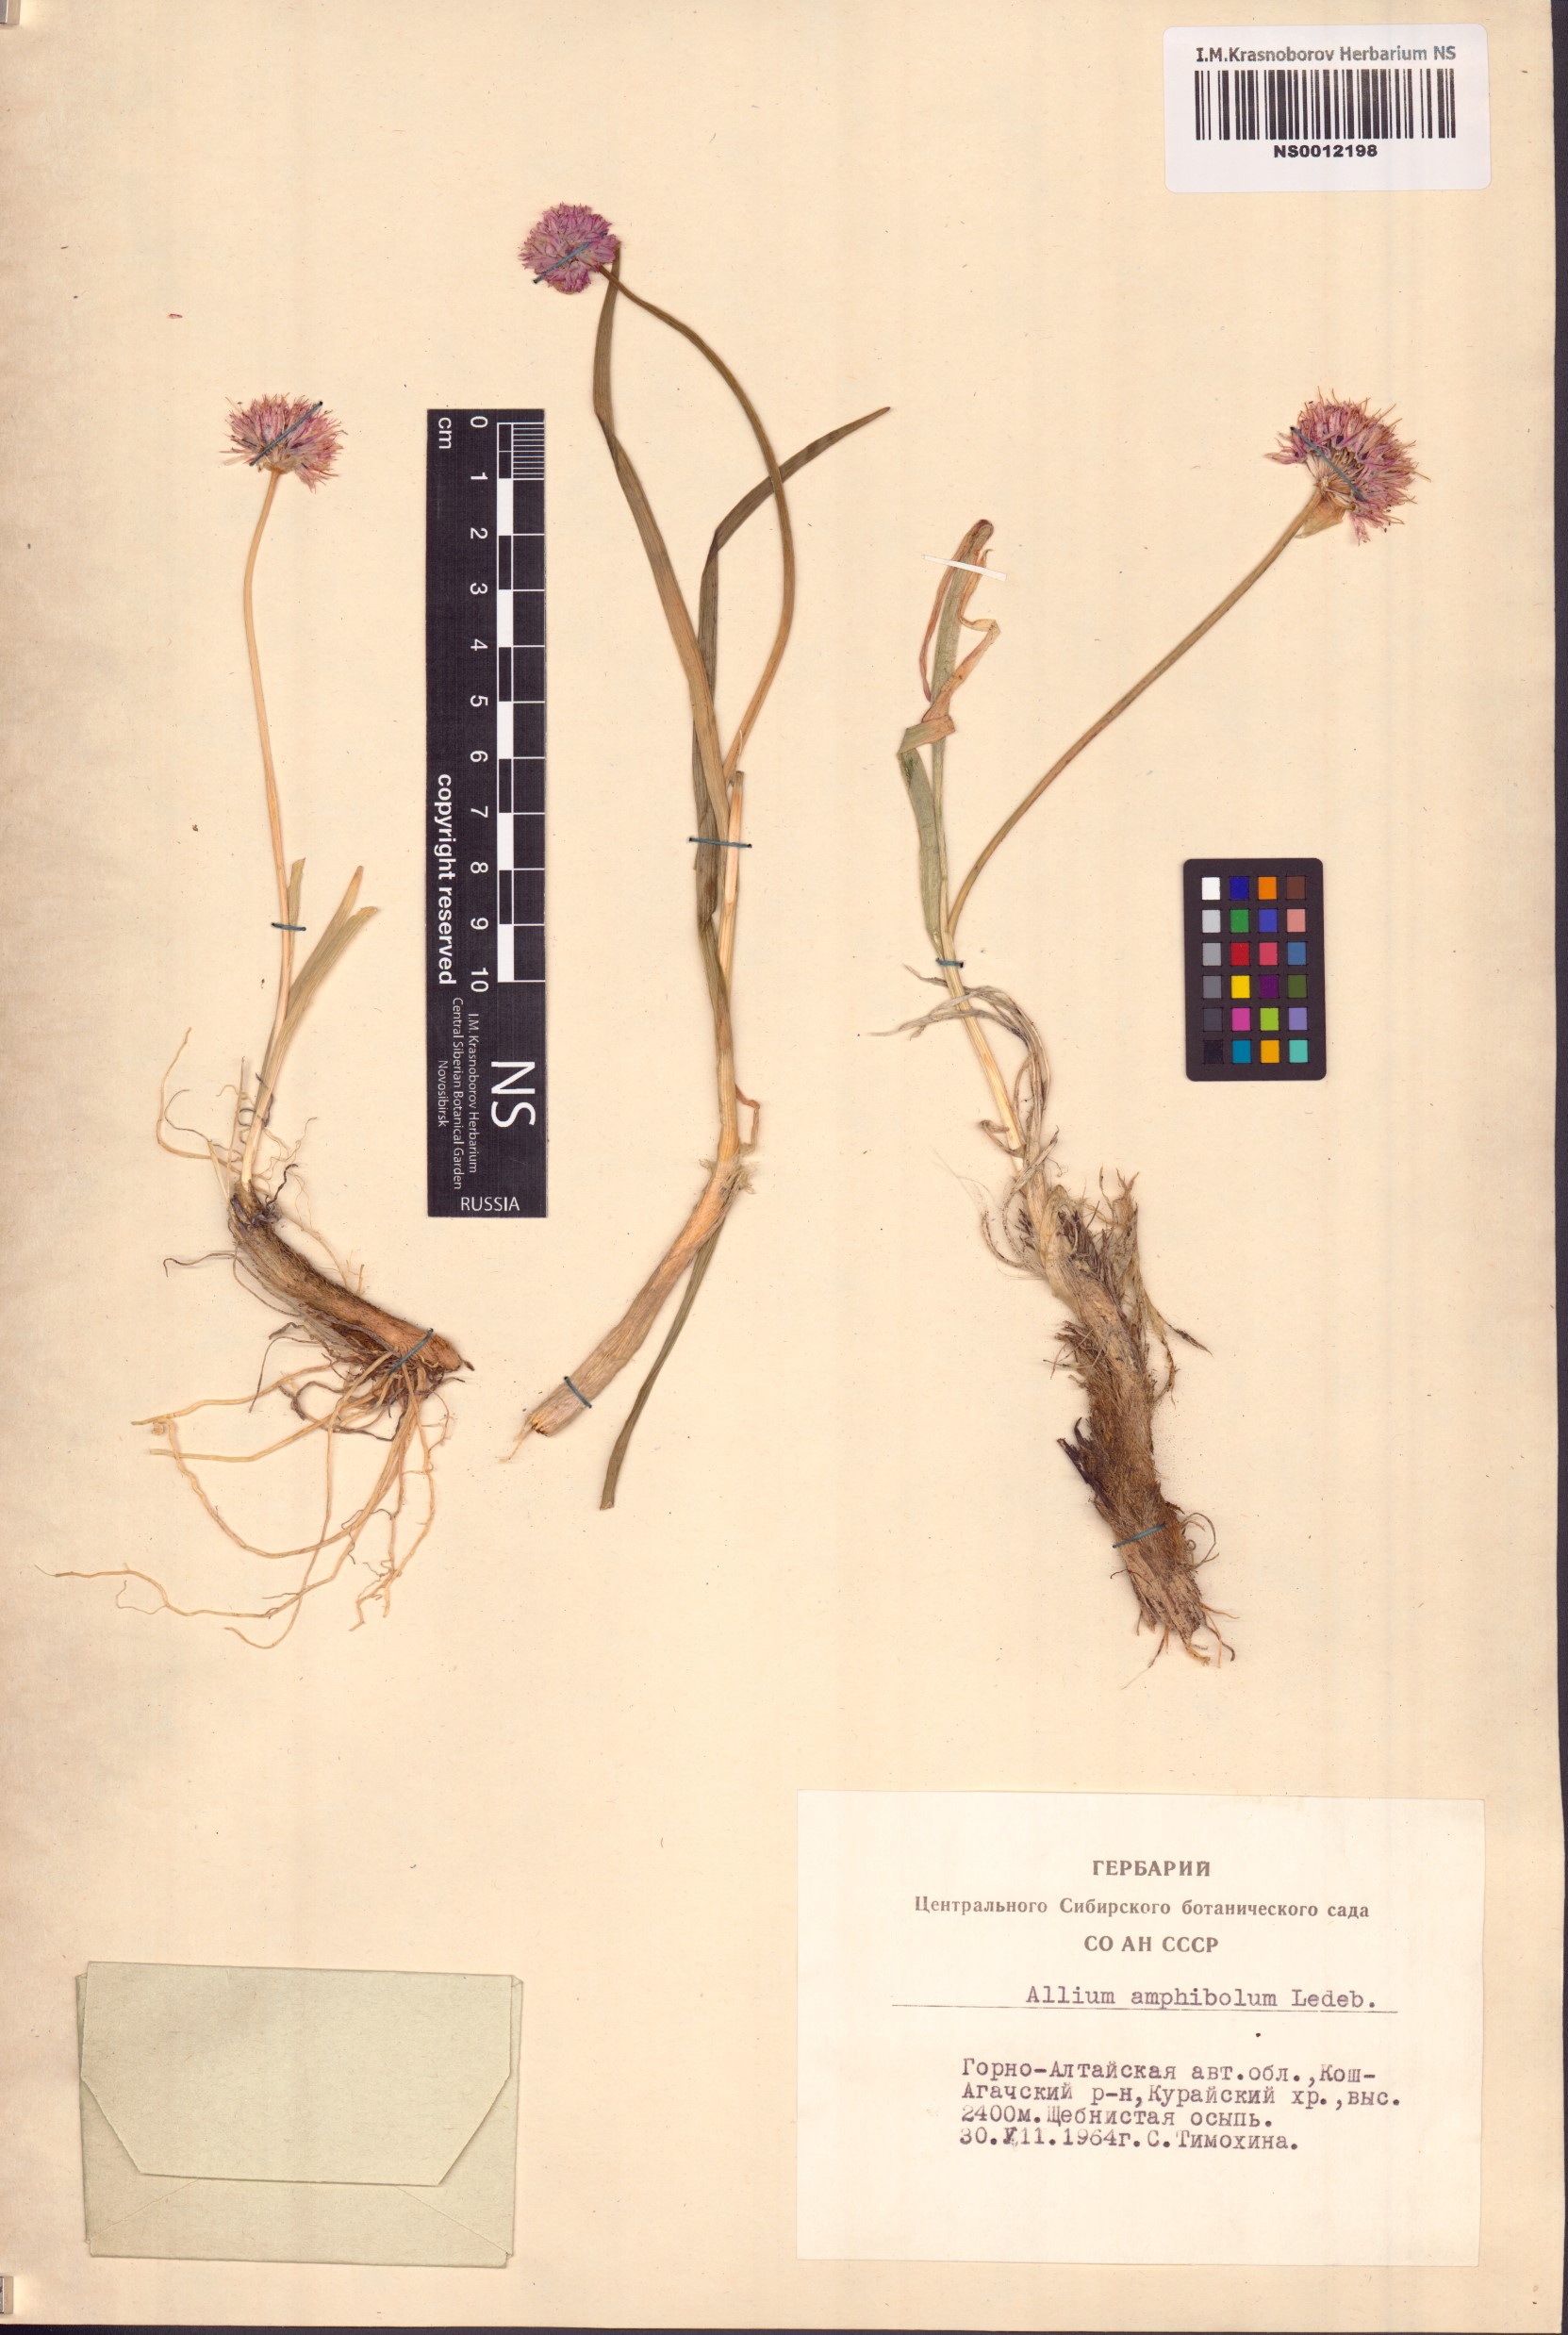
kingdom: Plantae
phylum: Tracheophyta
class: Liliopsida
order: Asparagales
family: Amaryllidaceae
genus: Allium
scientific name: Allium amphibolum
